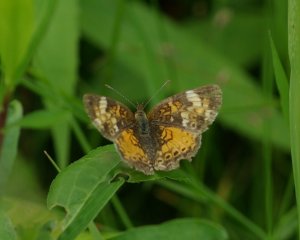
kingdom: Animalia
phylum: Arthropoda
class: Insecta
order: Lepidoptera
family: Nymphalidae
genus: Phyciodes
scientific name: Phyciodes tharos
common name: Northern Crescent
